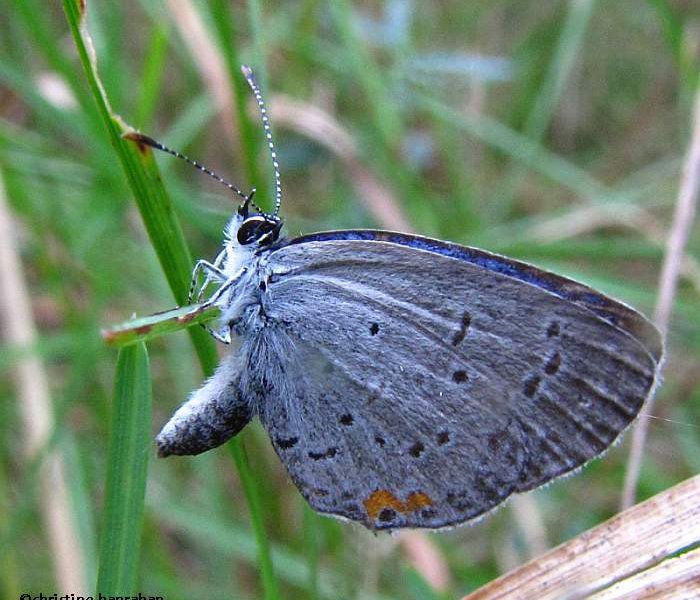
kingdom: Animalia
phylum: Arthropoda
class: Insecta
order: Lepidoptera
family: Lycaenidae
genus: Elkalyce
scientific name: Elkalyce comyntas
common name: Eastern Tailed-Blue
